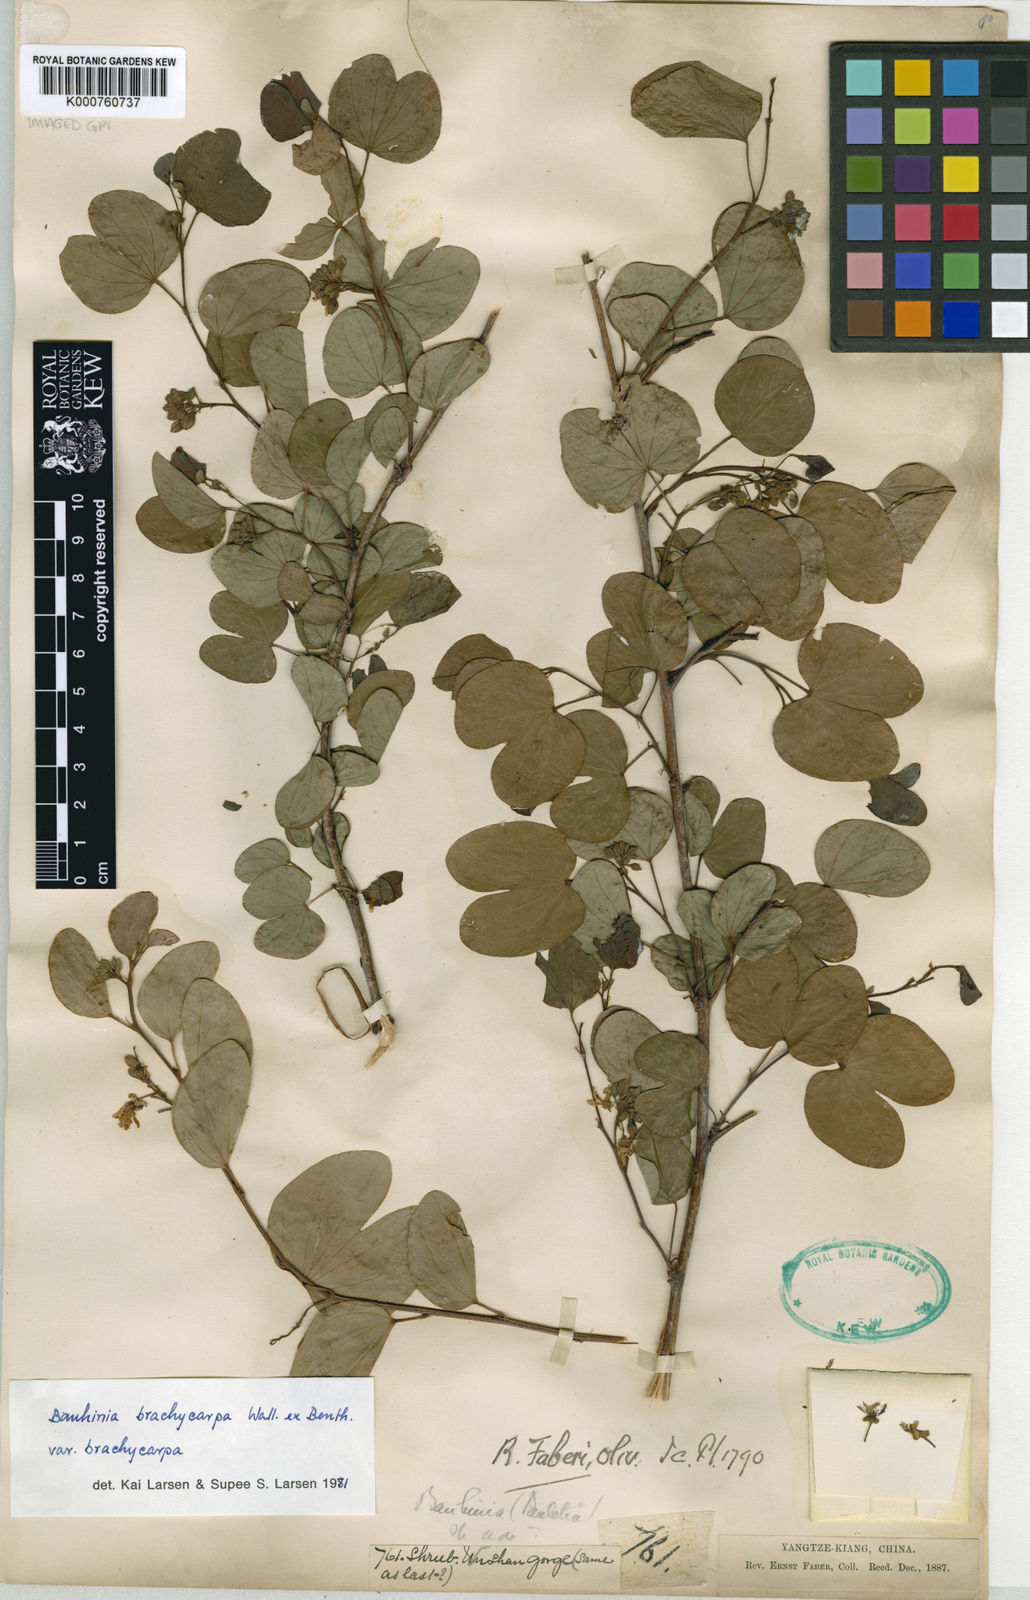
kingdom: Plantae
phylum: Tracheophyta
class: Magnoliopsida
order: Fabales
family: Fabaceae
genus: Bauhinia
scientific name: Bauhinia brachycarpa
